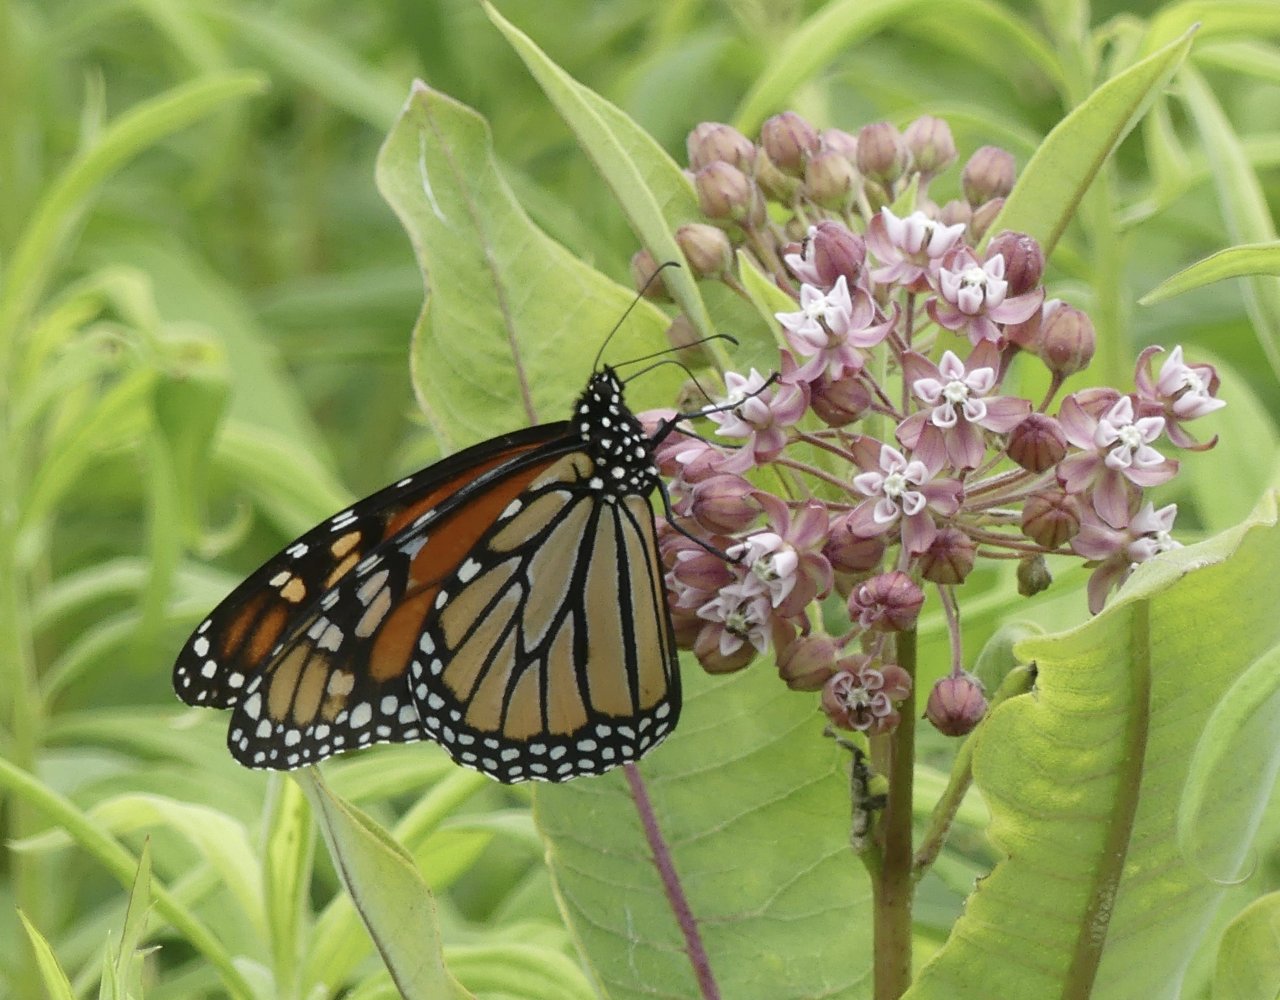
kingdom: Animalia
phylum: Arthropoda
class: Insecta
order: Lepidoptera
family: Nymphalidae
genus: Danaus
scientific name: Danaus plexippus
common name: Monarch
